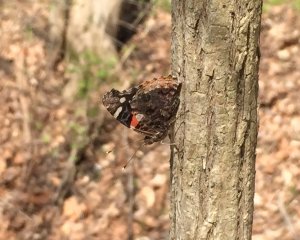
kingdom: Animalia
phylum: Arthropoda
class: Insecta
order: Lepidoptera
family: Nymphalidae
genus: Vanessa
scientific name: Vanessa atalanta
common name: Red Admiral
